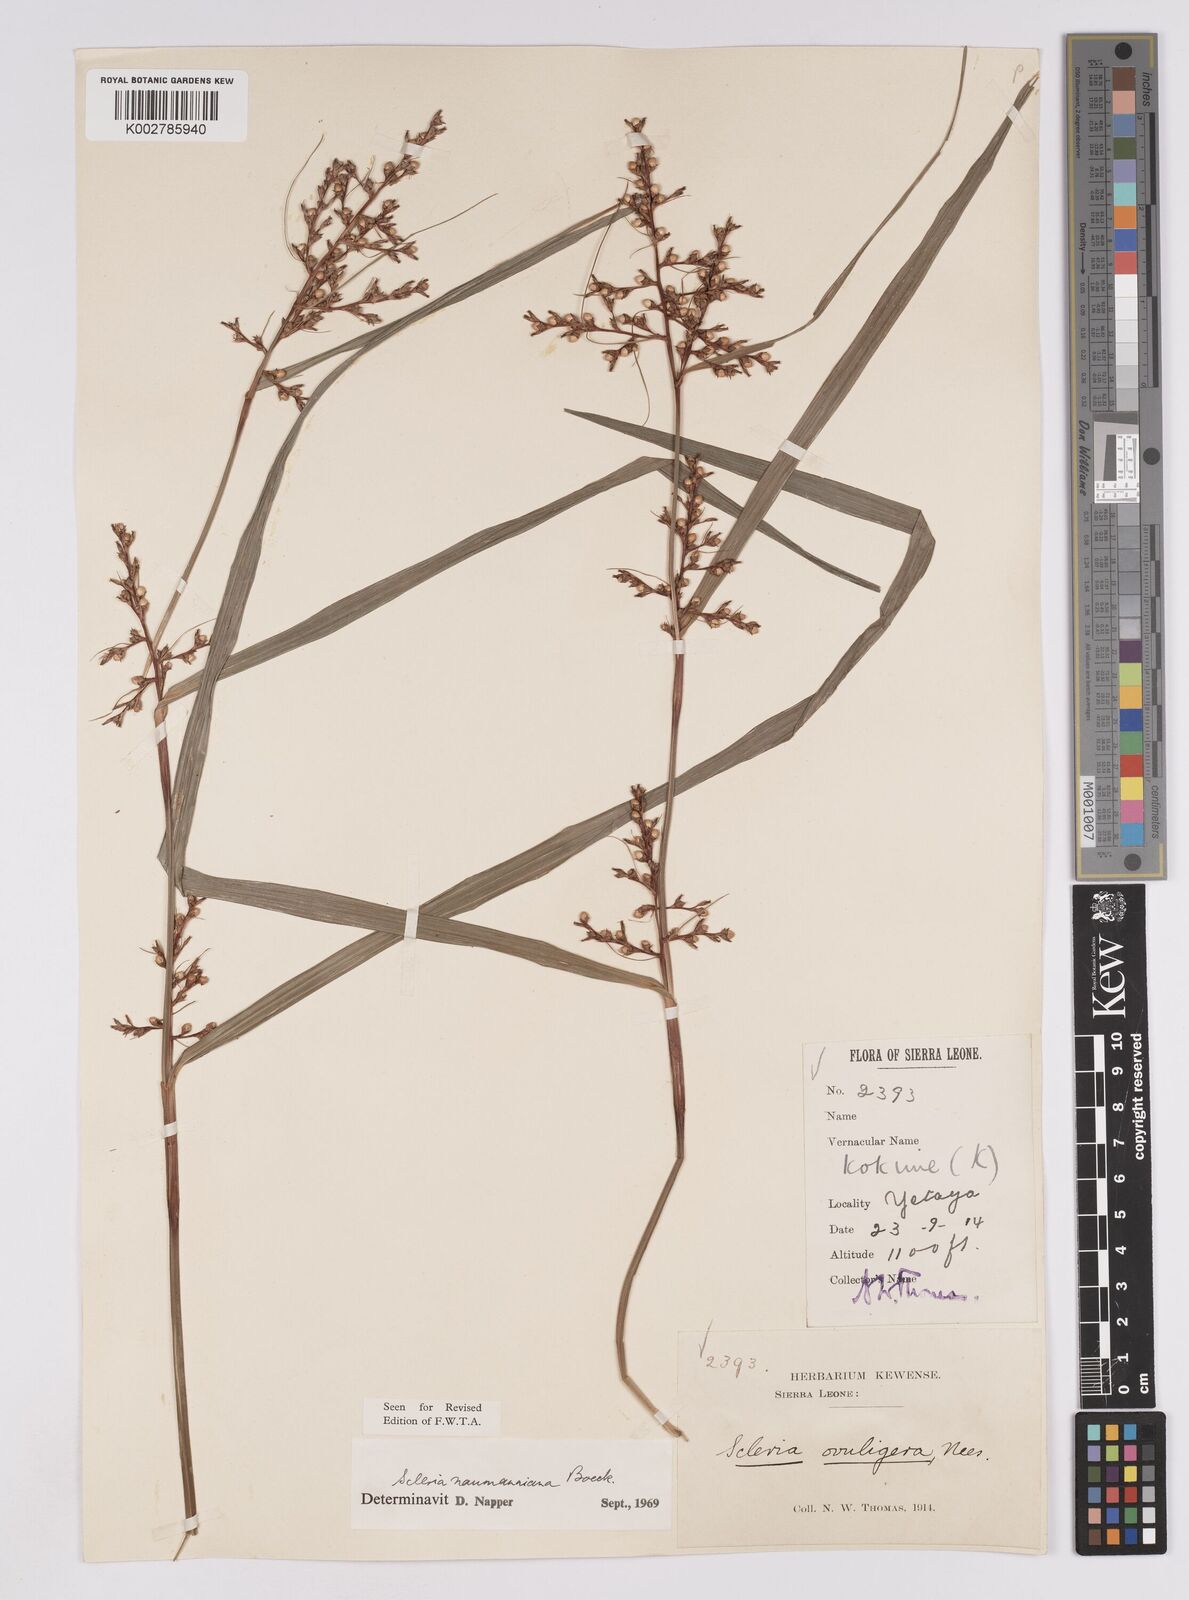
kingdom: Plantae
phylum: Tracheophyta
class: Liliopsida
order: Poales
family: Cyperaceae
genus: Scleria
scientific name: Scleria naumanniana
